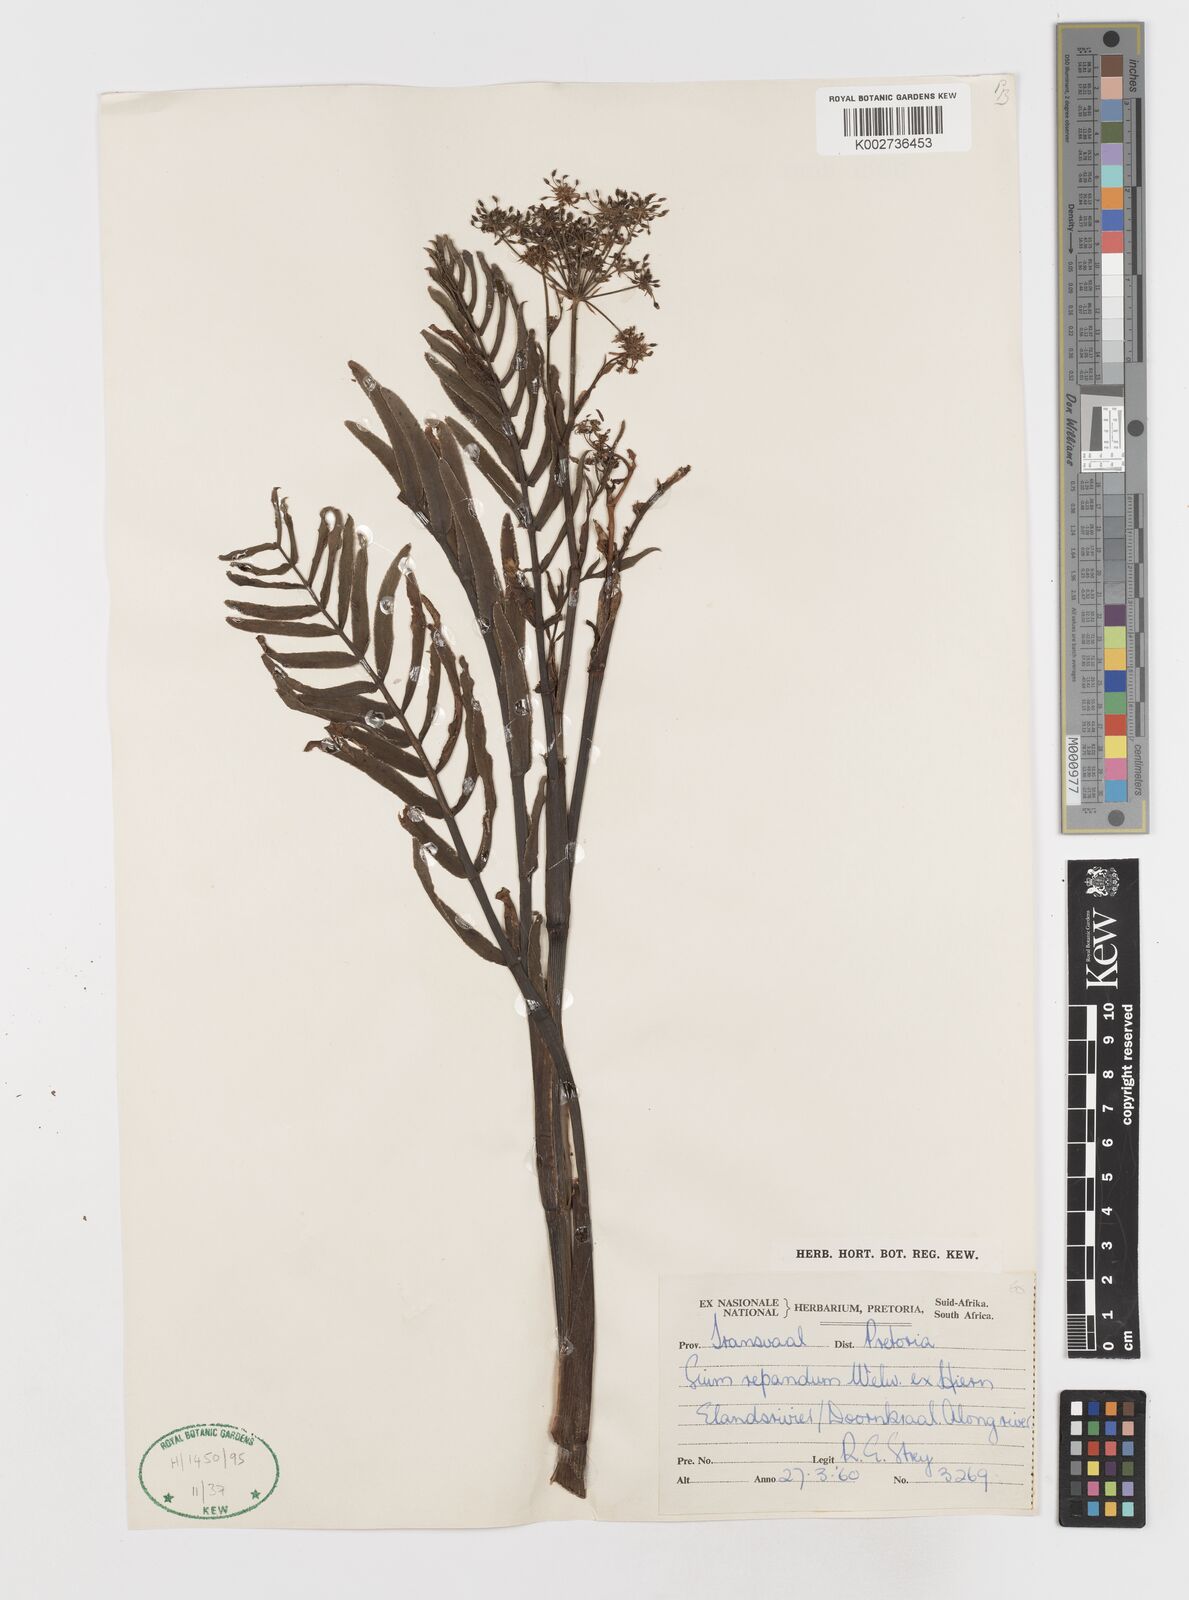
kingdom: Plantae
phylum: Tracheophyta
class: Magnoliopsida
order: Apiales
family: Apiaceae
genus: Berula
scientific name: Berula repanda
